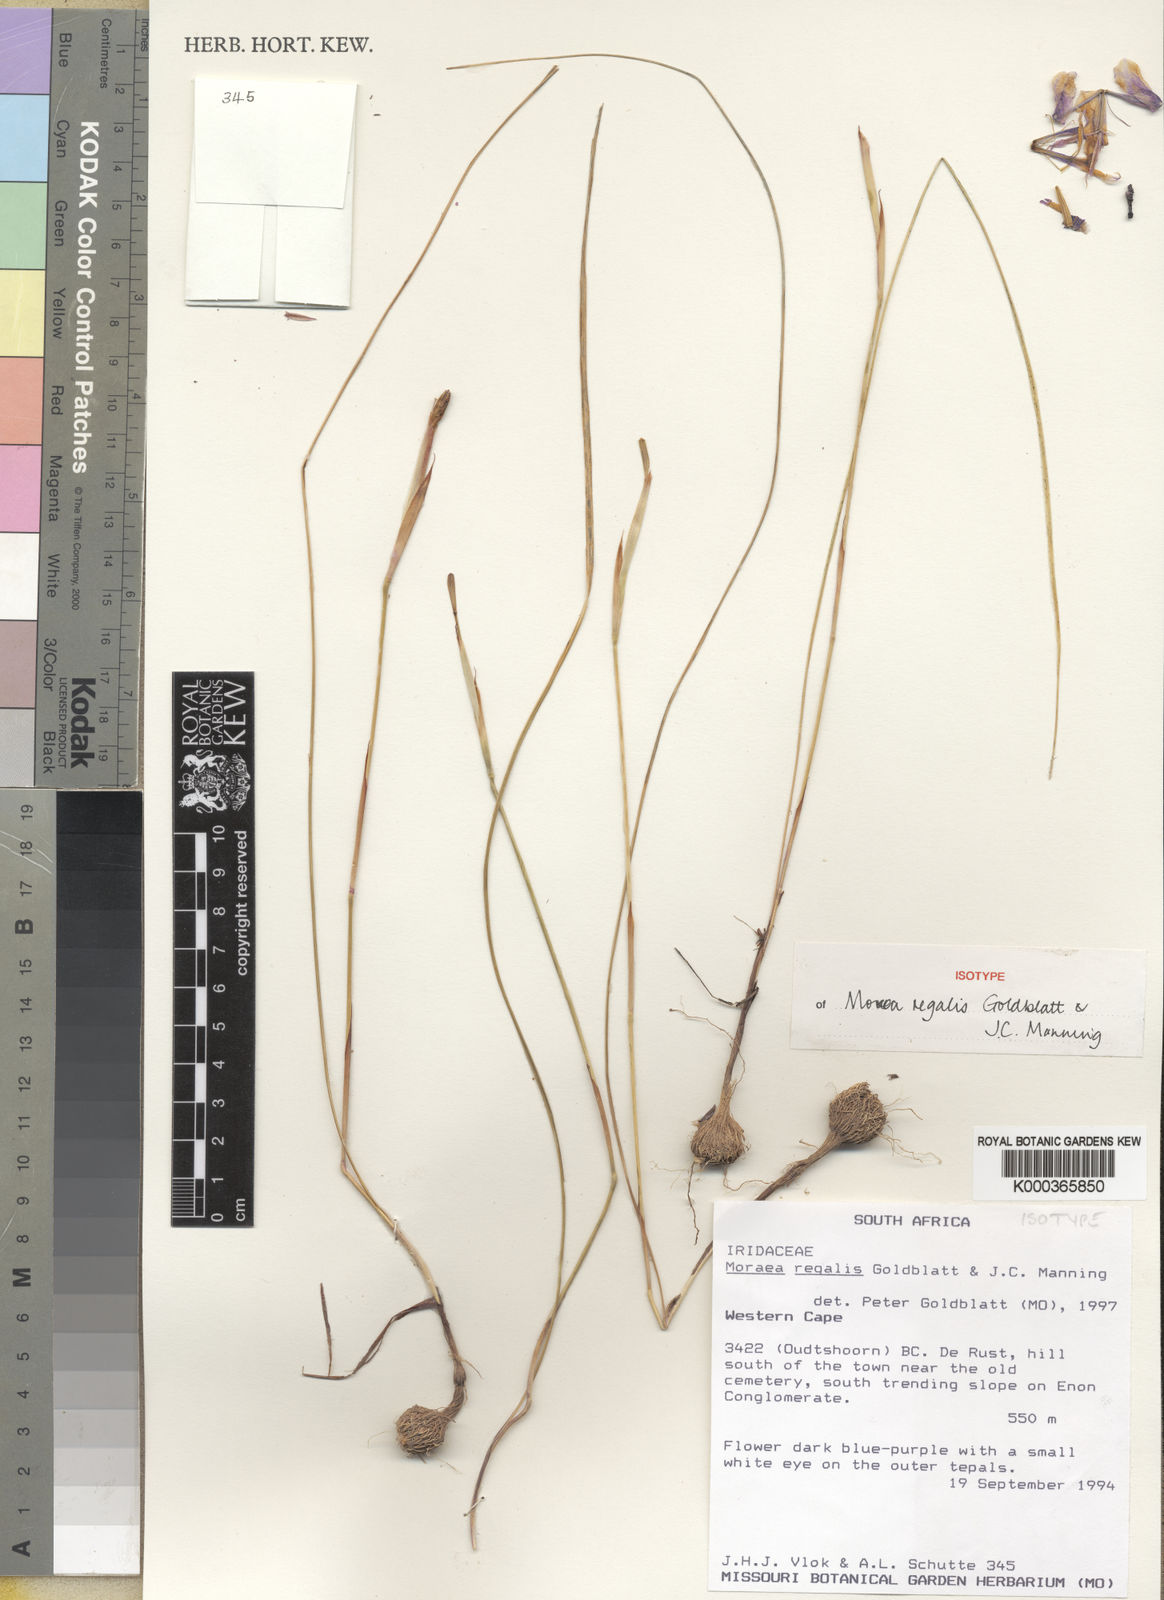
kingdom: Plantae
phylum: Tracheophyta
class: Liliopsida
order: Asparagales
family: Iridaceae
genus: Moraea
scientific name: Moraea regalis
